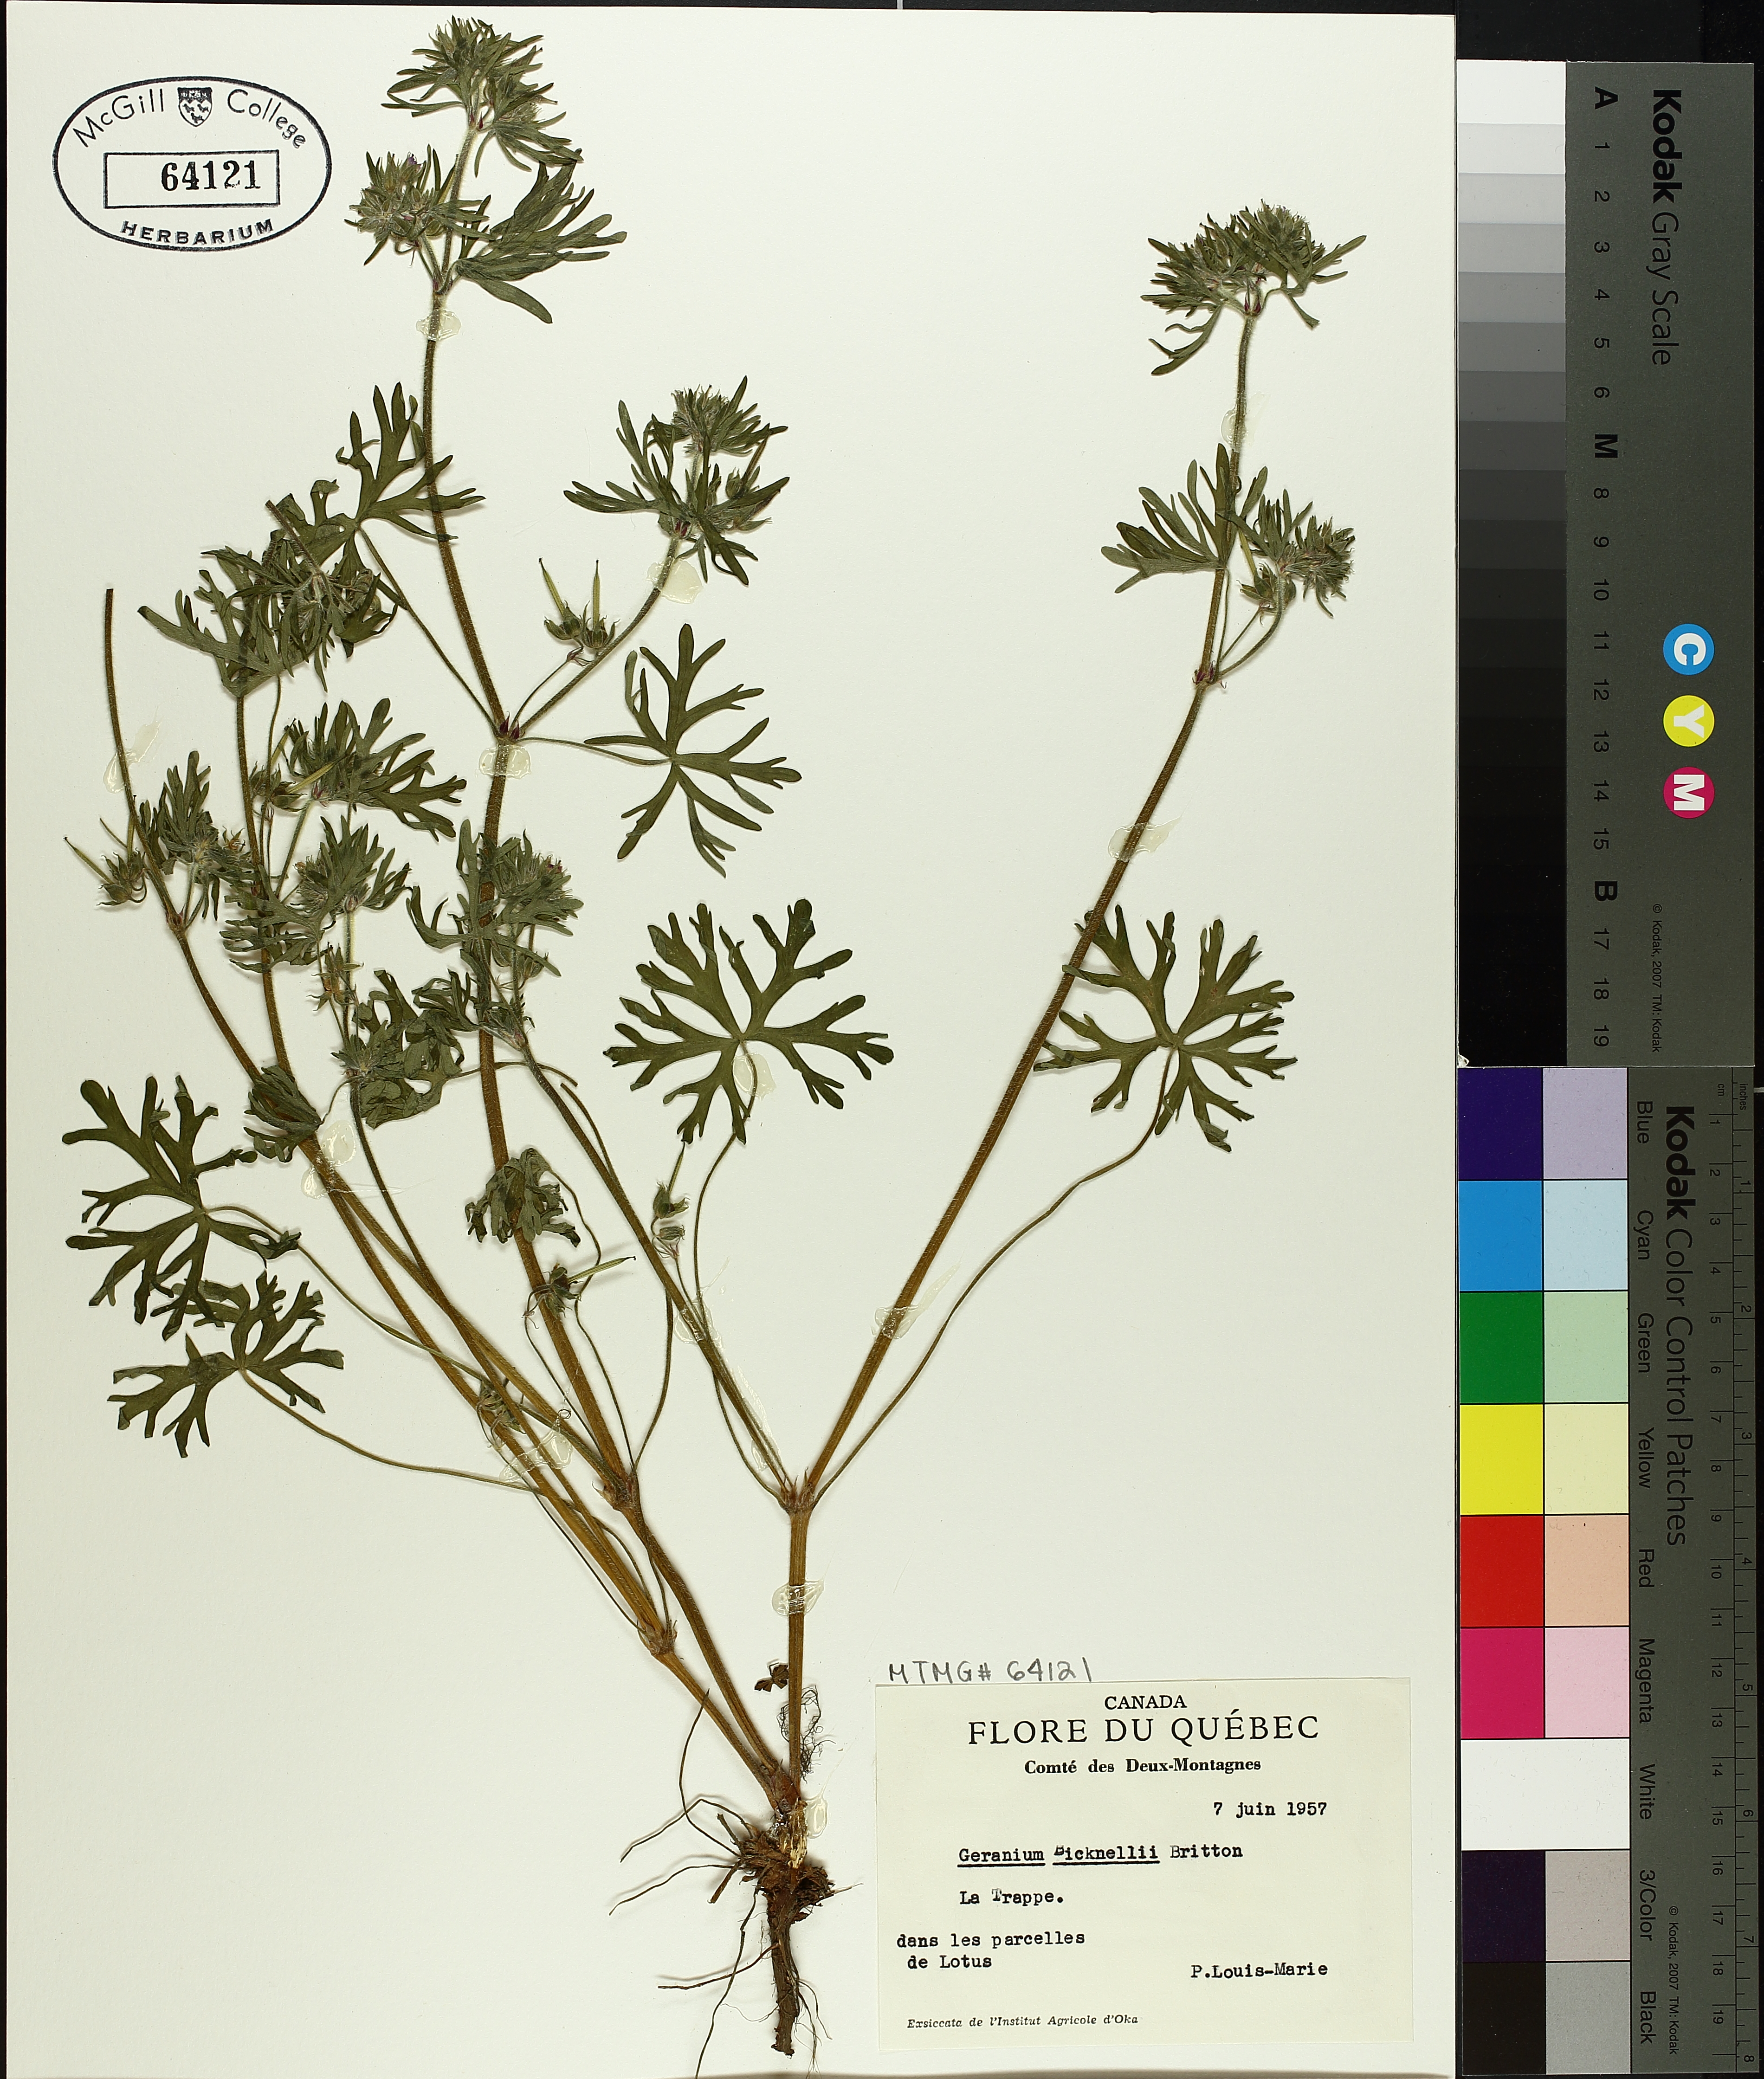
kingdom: Plantae
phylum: Tracheophyta
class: Magnoliopsida
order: Geraniales
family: Geraniaceae
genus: Geranium
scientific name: Geranium bicknellii
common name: Bicknell's cranesbill
